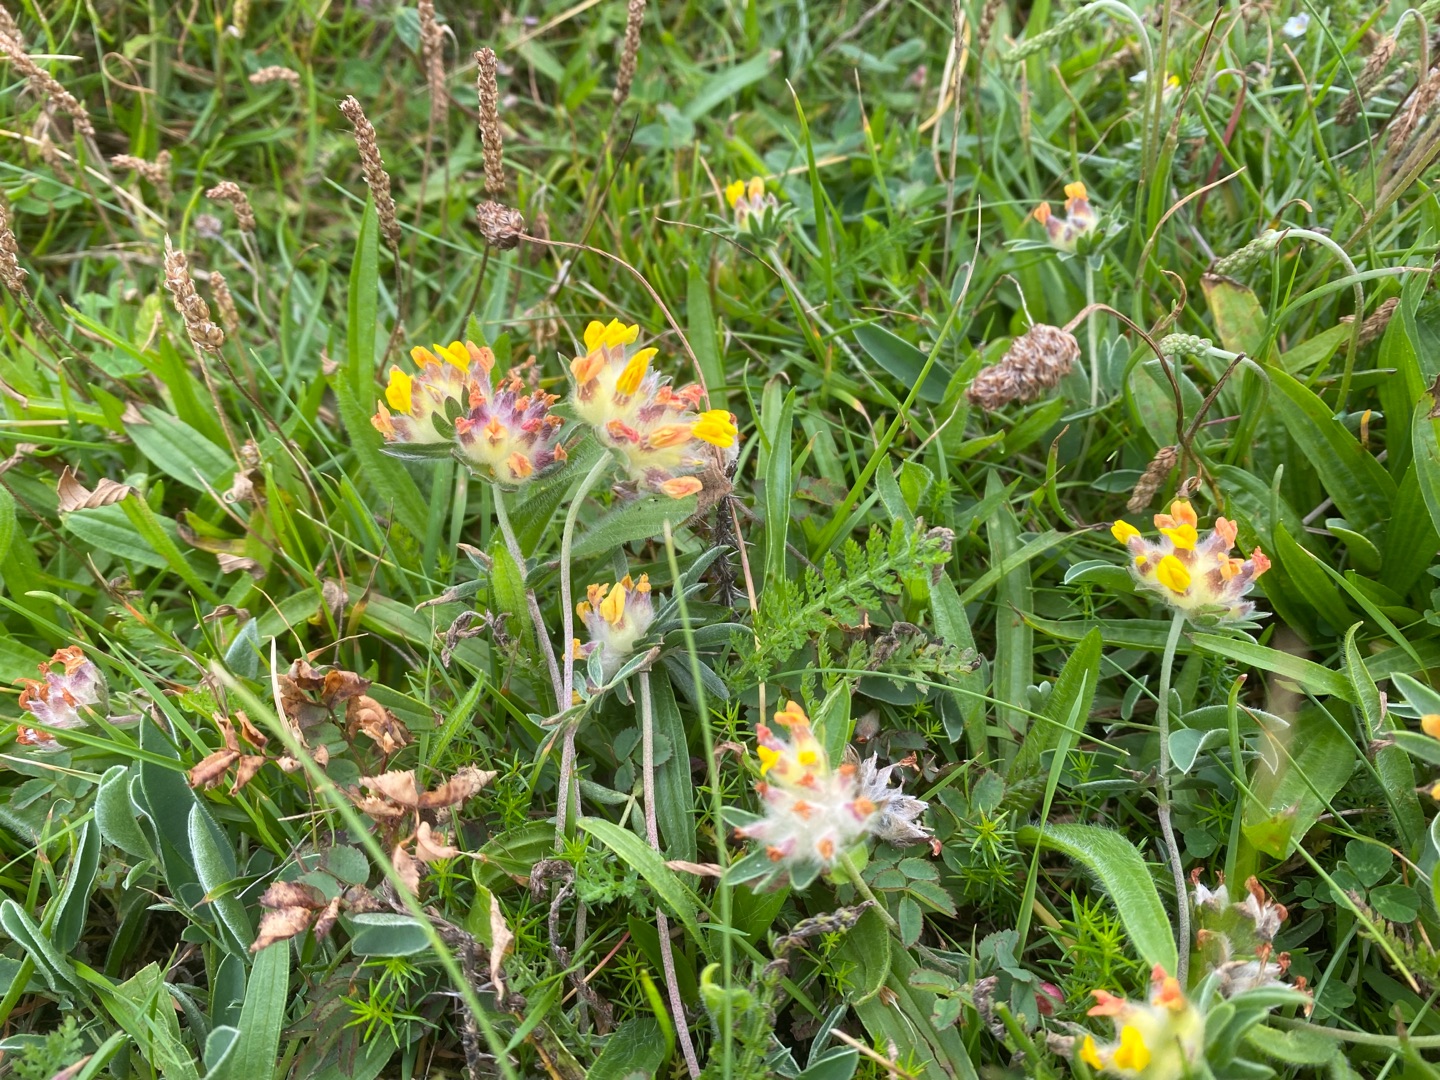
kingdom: Plantae
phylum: Tracheophyta
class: Magnoliopsida
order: Fabales
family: Fabaceae
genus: Anthyllis
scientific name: Anthyllis vulneraria
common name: Rundbælg
